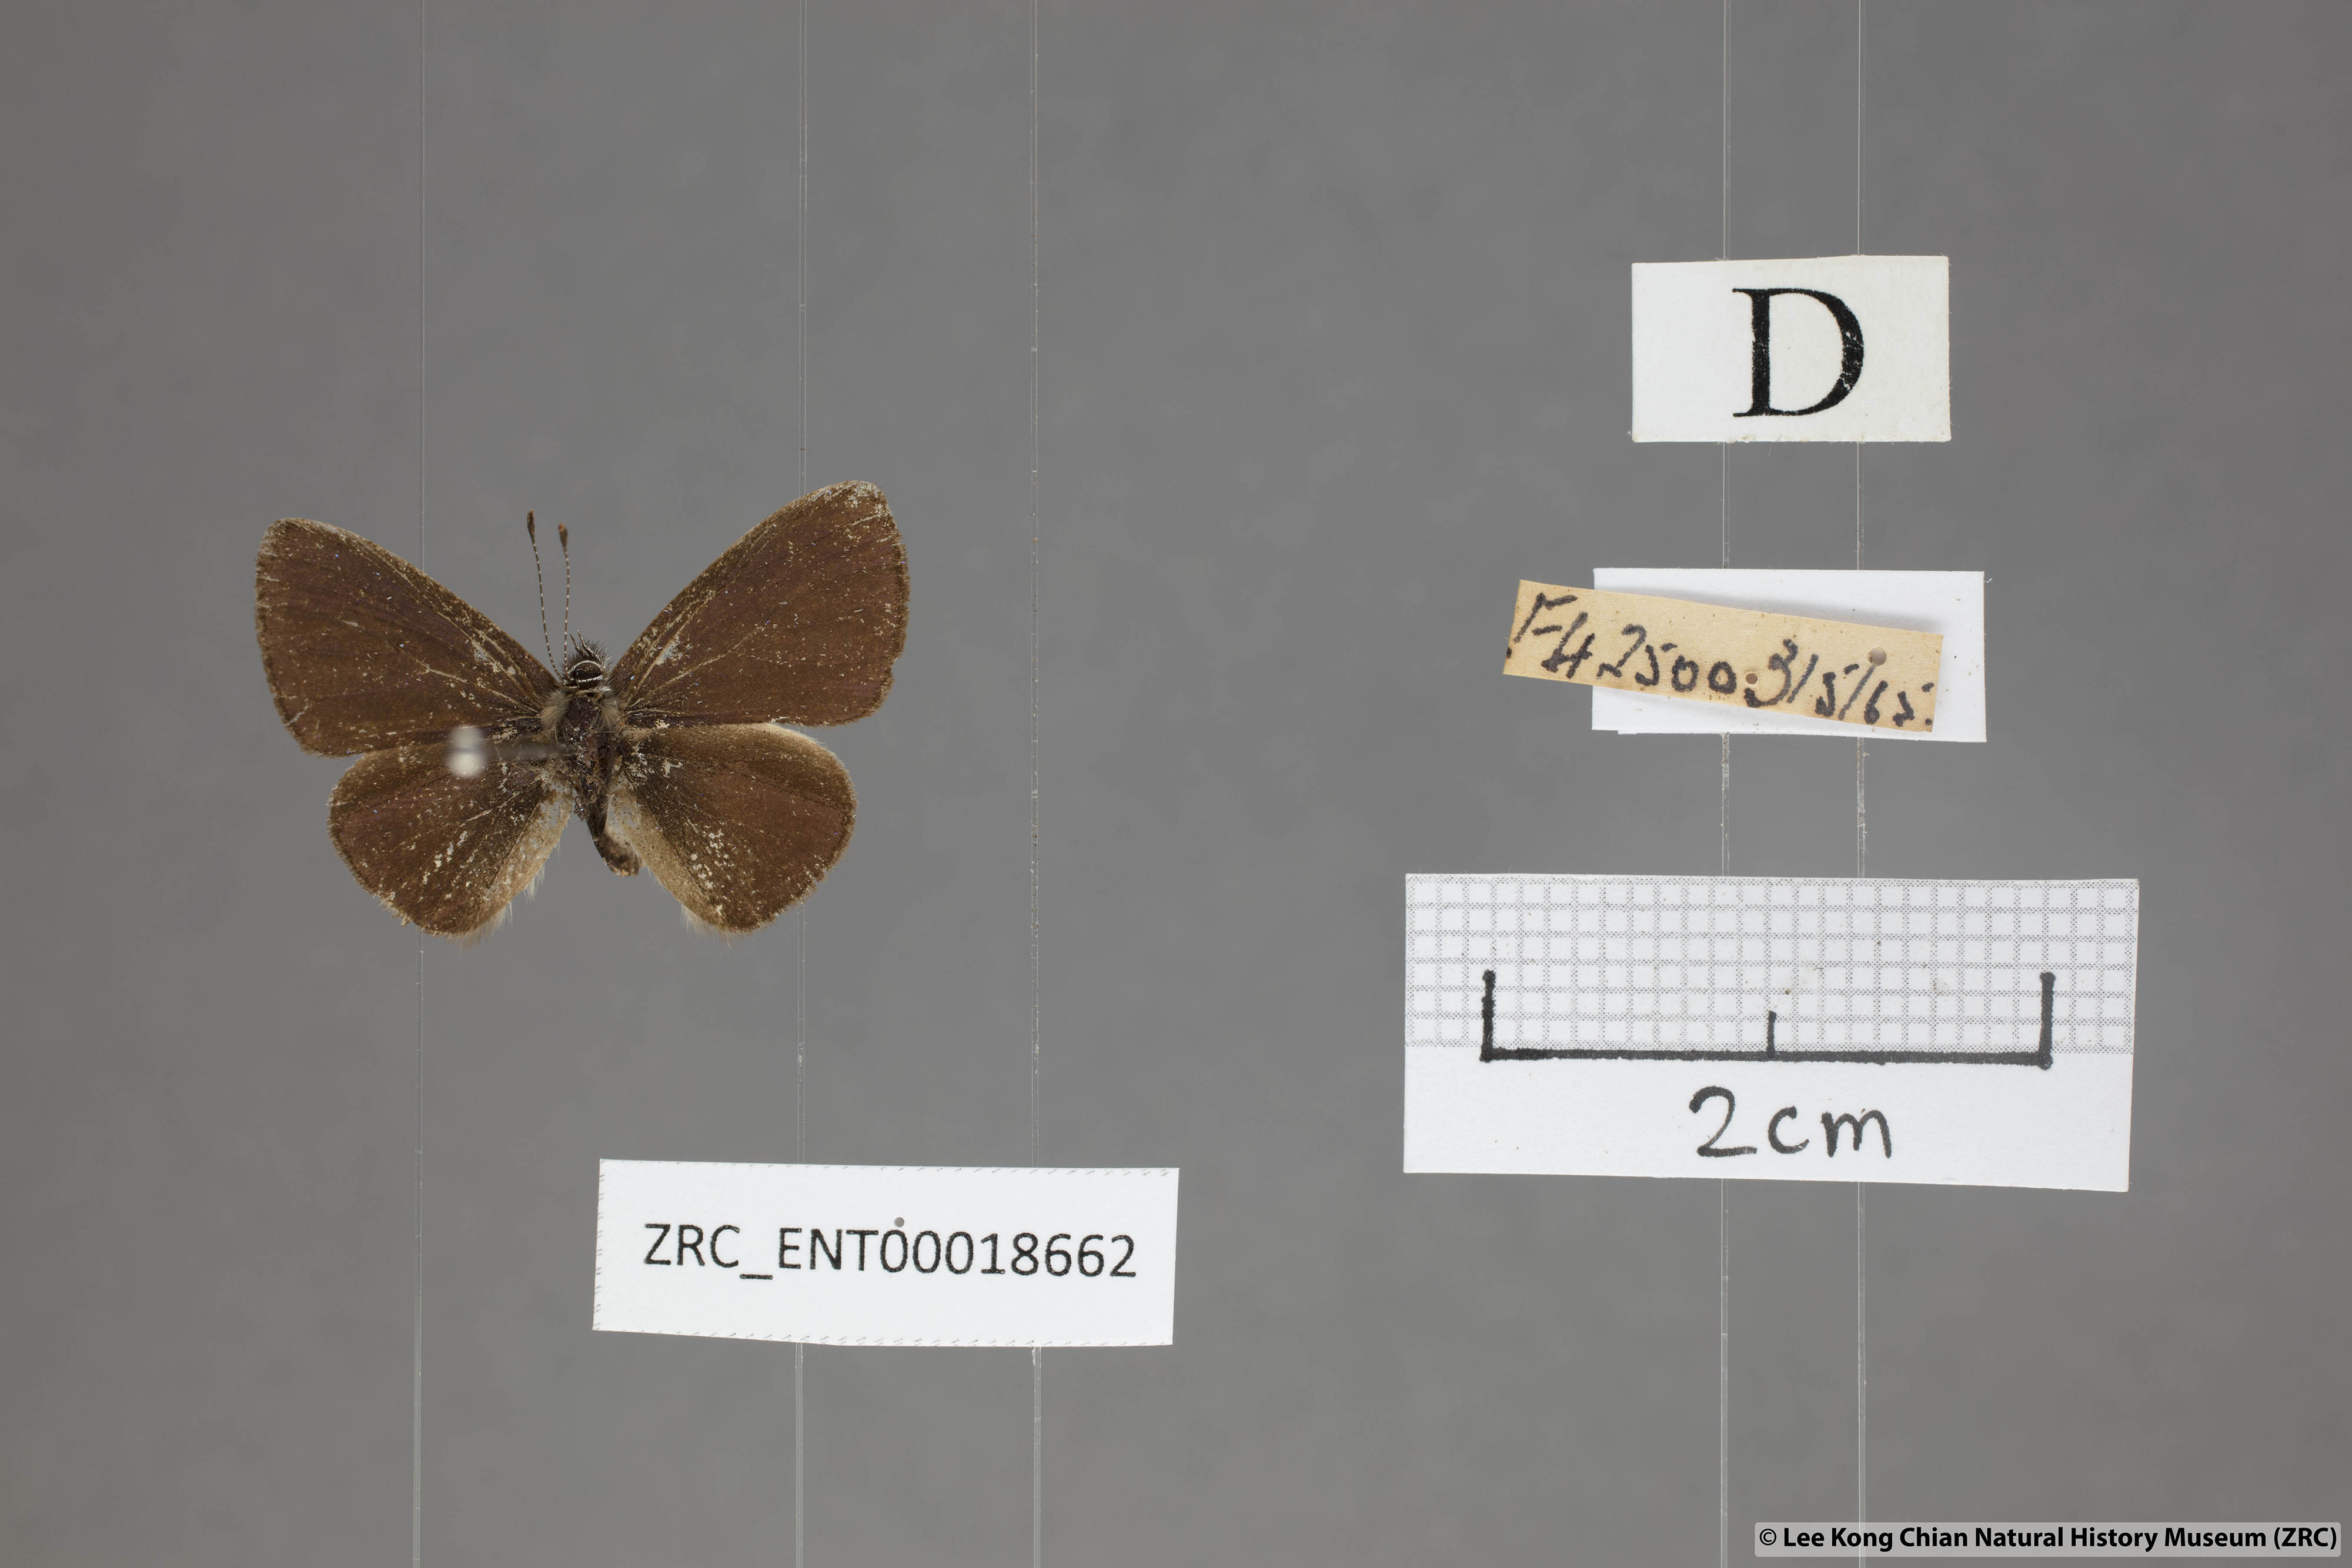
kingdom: Animalia
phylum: Arthropoda
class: Insecta
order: Lepidoptera
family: Lycaenidae
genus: Una
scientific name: Una usta
